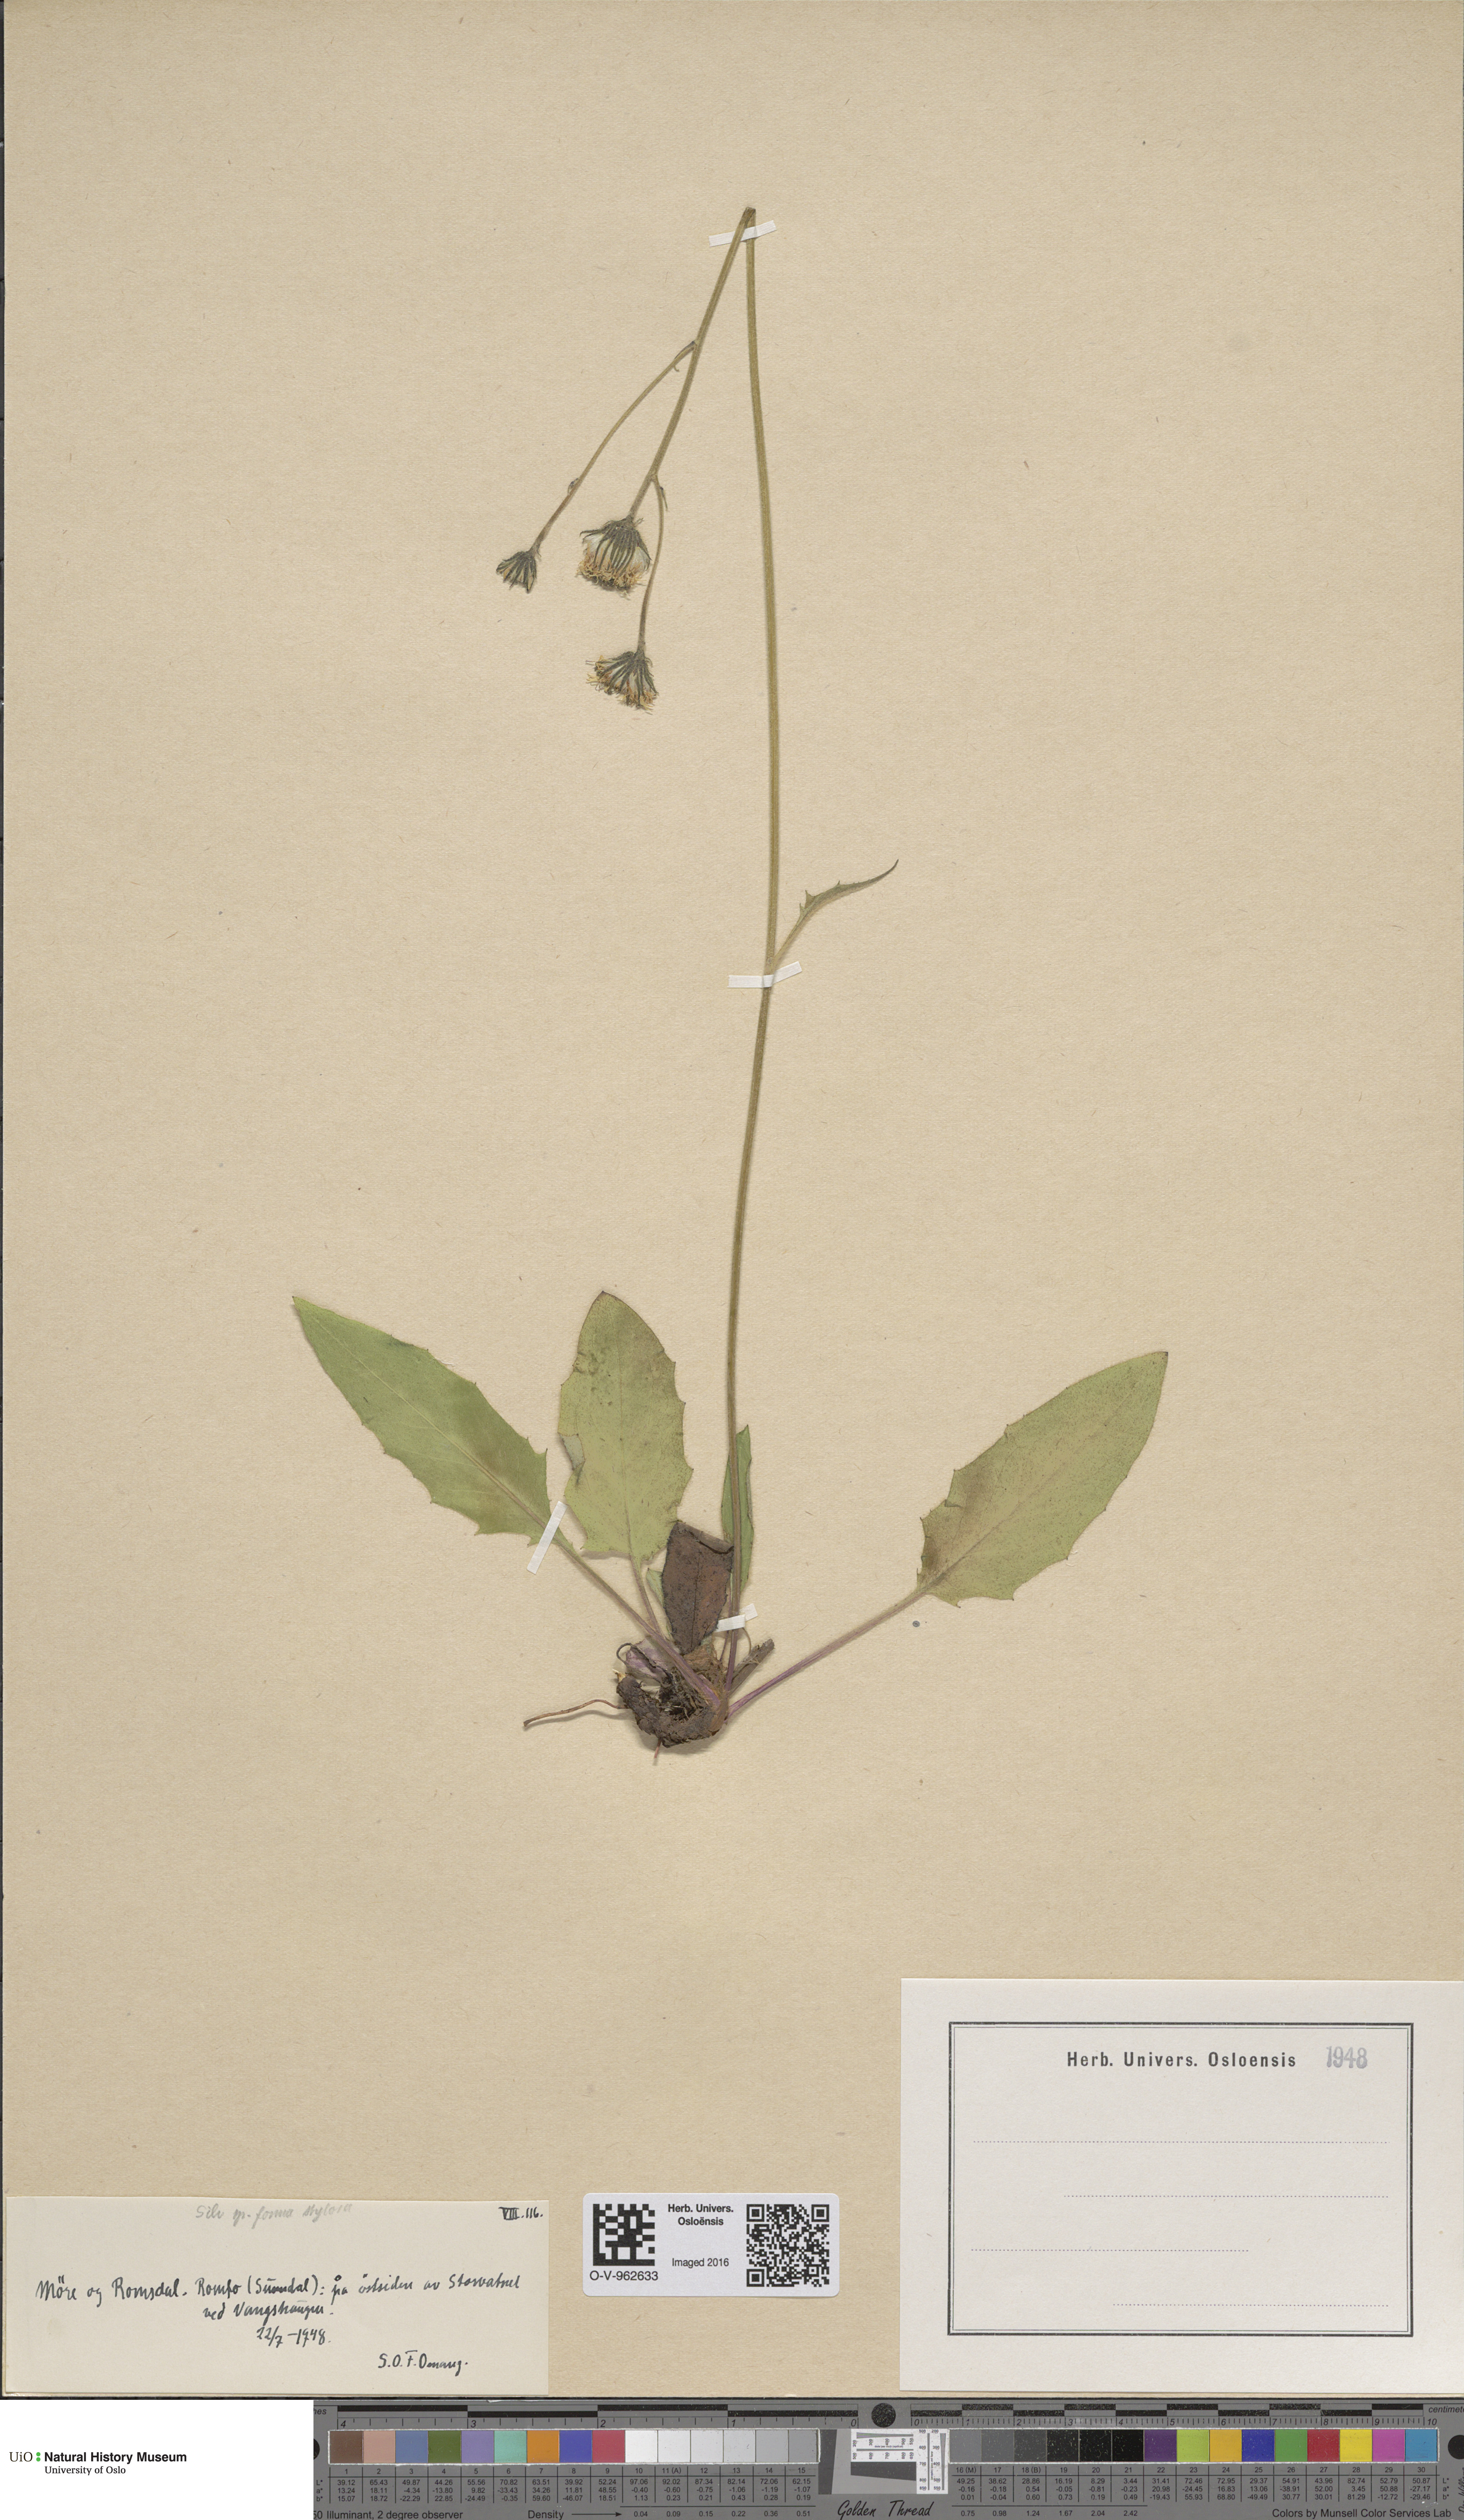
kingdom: Plantae
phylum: Tracheophyta
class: Magnoliopsida
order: Asterales
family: Asteraceae
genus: Hieracium
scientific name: Hieracium
